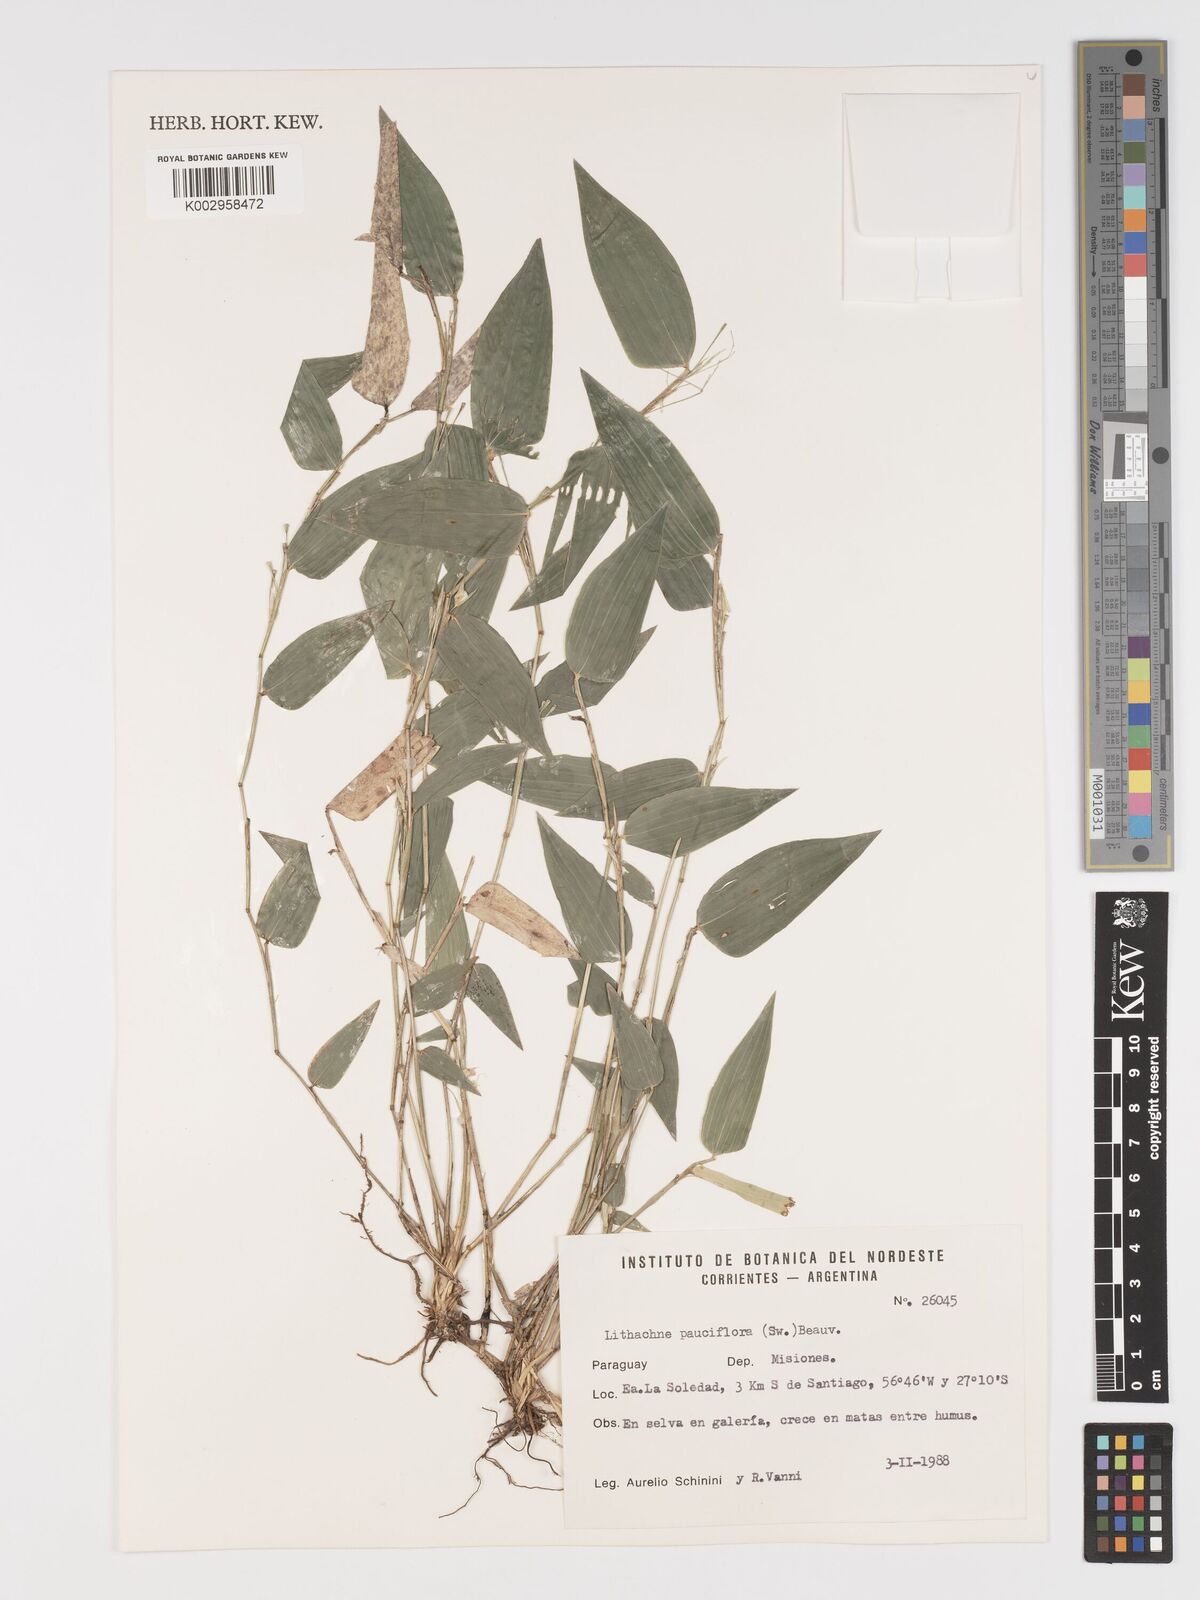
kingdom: Plantae
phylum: Tracheophyta
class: Liliopsida
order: Poales
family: Poaceae
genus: Lithachne
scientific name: Lithachne pauciflora
